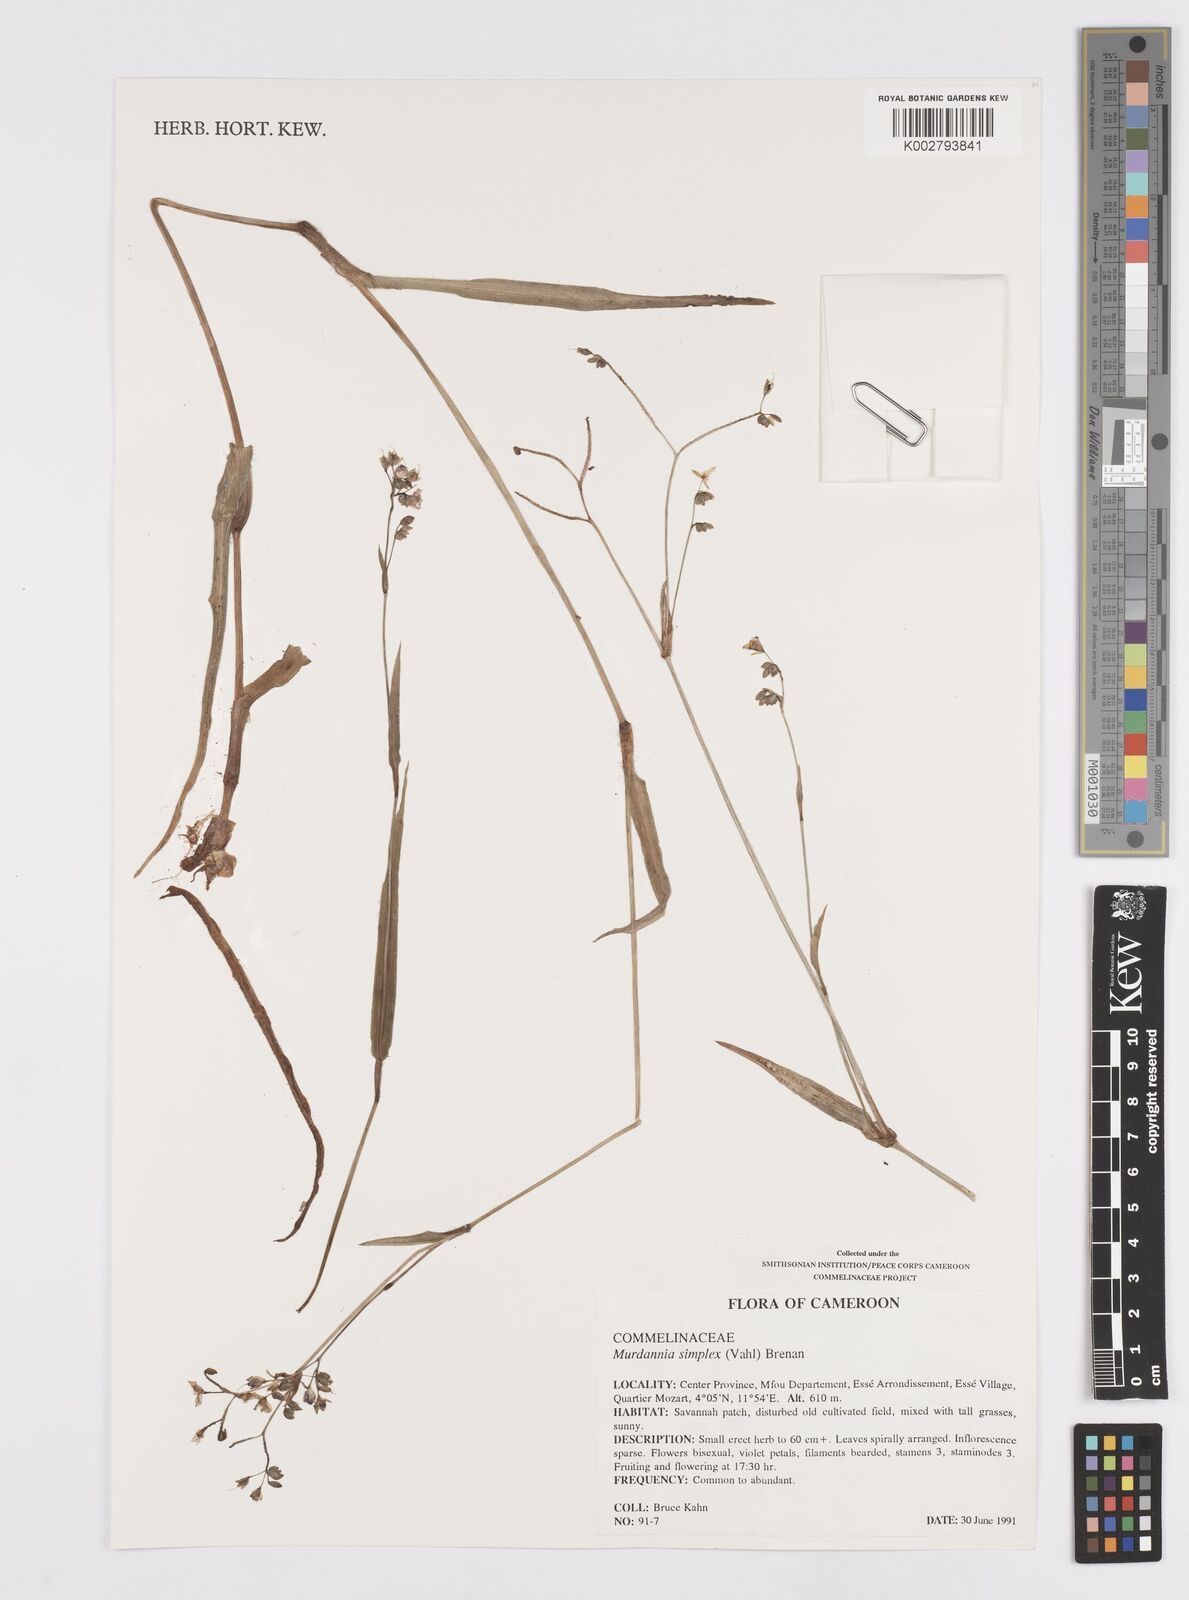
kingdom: Plantae
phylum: Tracheophyta
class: Liliopsida
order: Commelinales
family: Commelinaceae
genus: Murdannia
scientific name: Murdannia simplex
